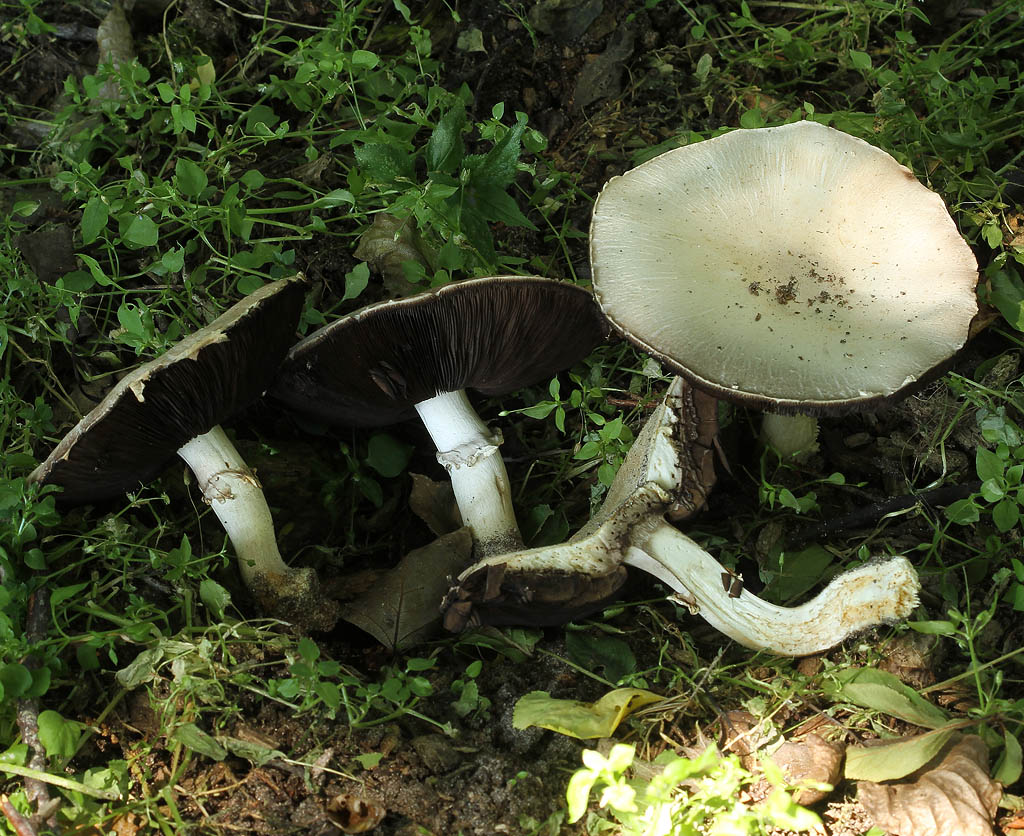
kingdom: Fungi
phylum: Basidiomycota
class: Agaricomycetes
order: Agaricales
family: Agaricaceae
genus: Agaricus
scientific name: Agaricus sylvicola
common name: skiveknoldet champignon
